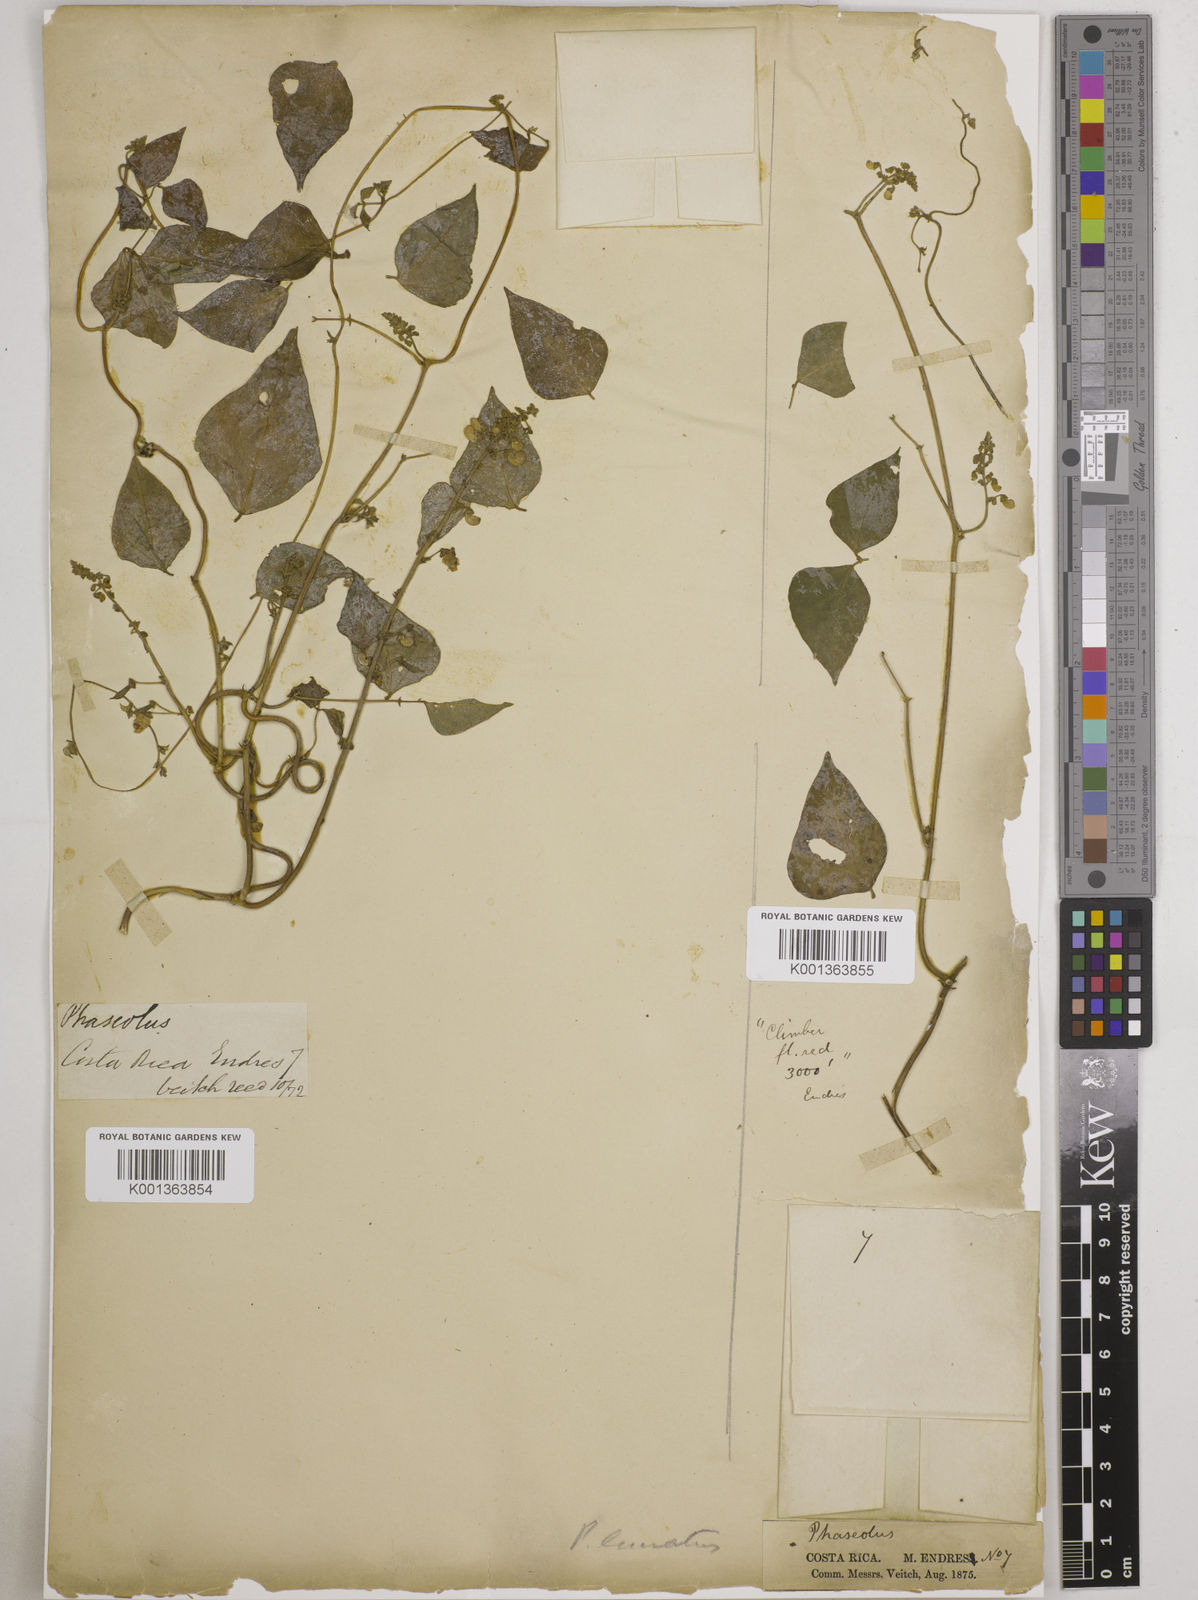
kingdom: Plantae
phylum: Tracheophyta
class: Magnoliopsida
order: Fabales
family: Fabaceae
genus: Phaseolus
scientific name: Phaseolus lunatus
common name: Sieva bean
